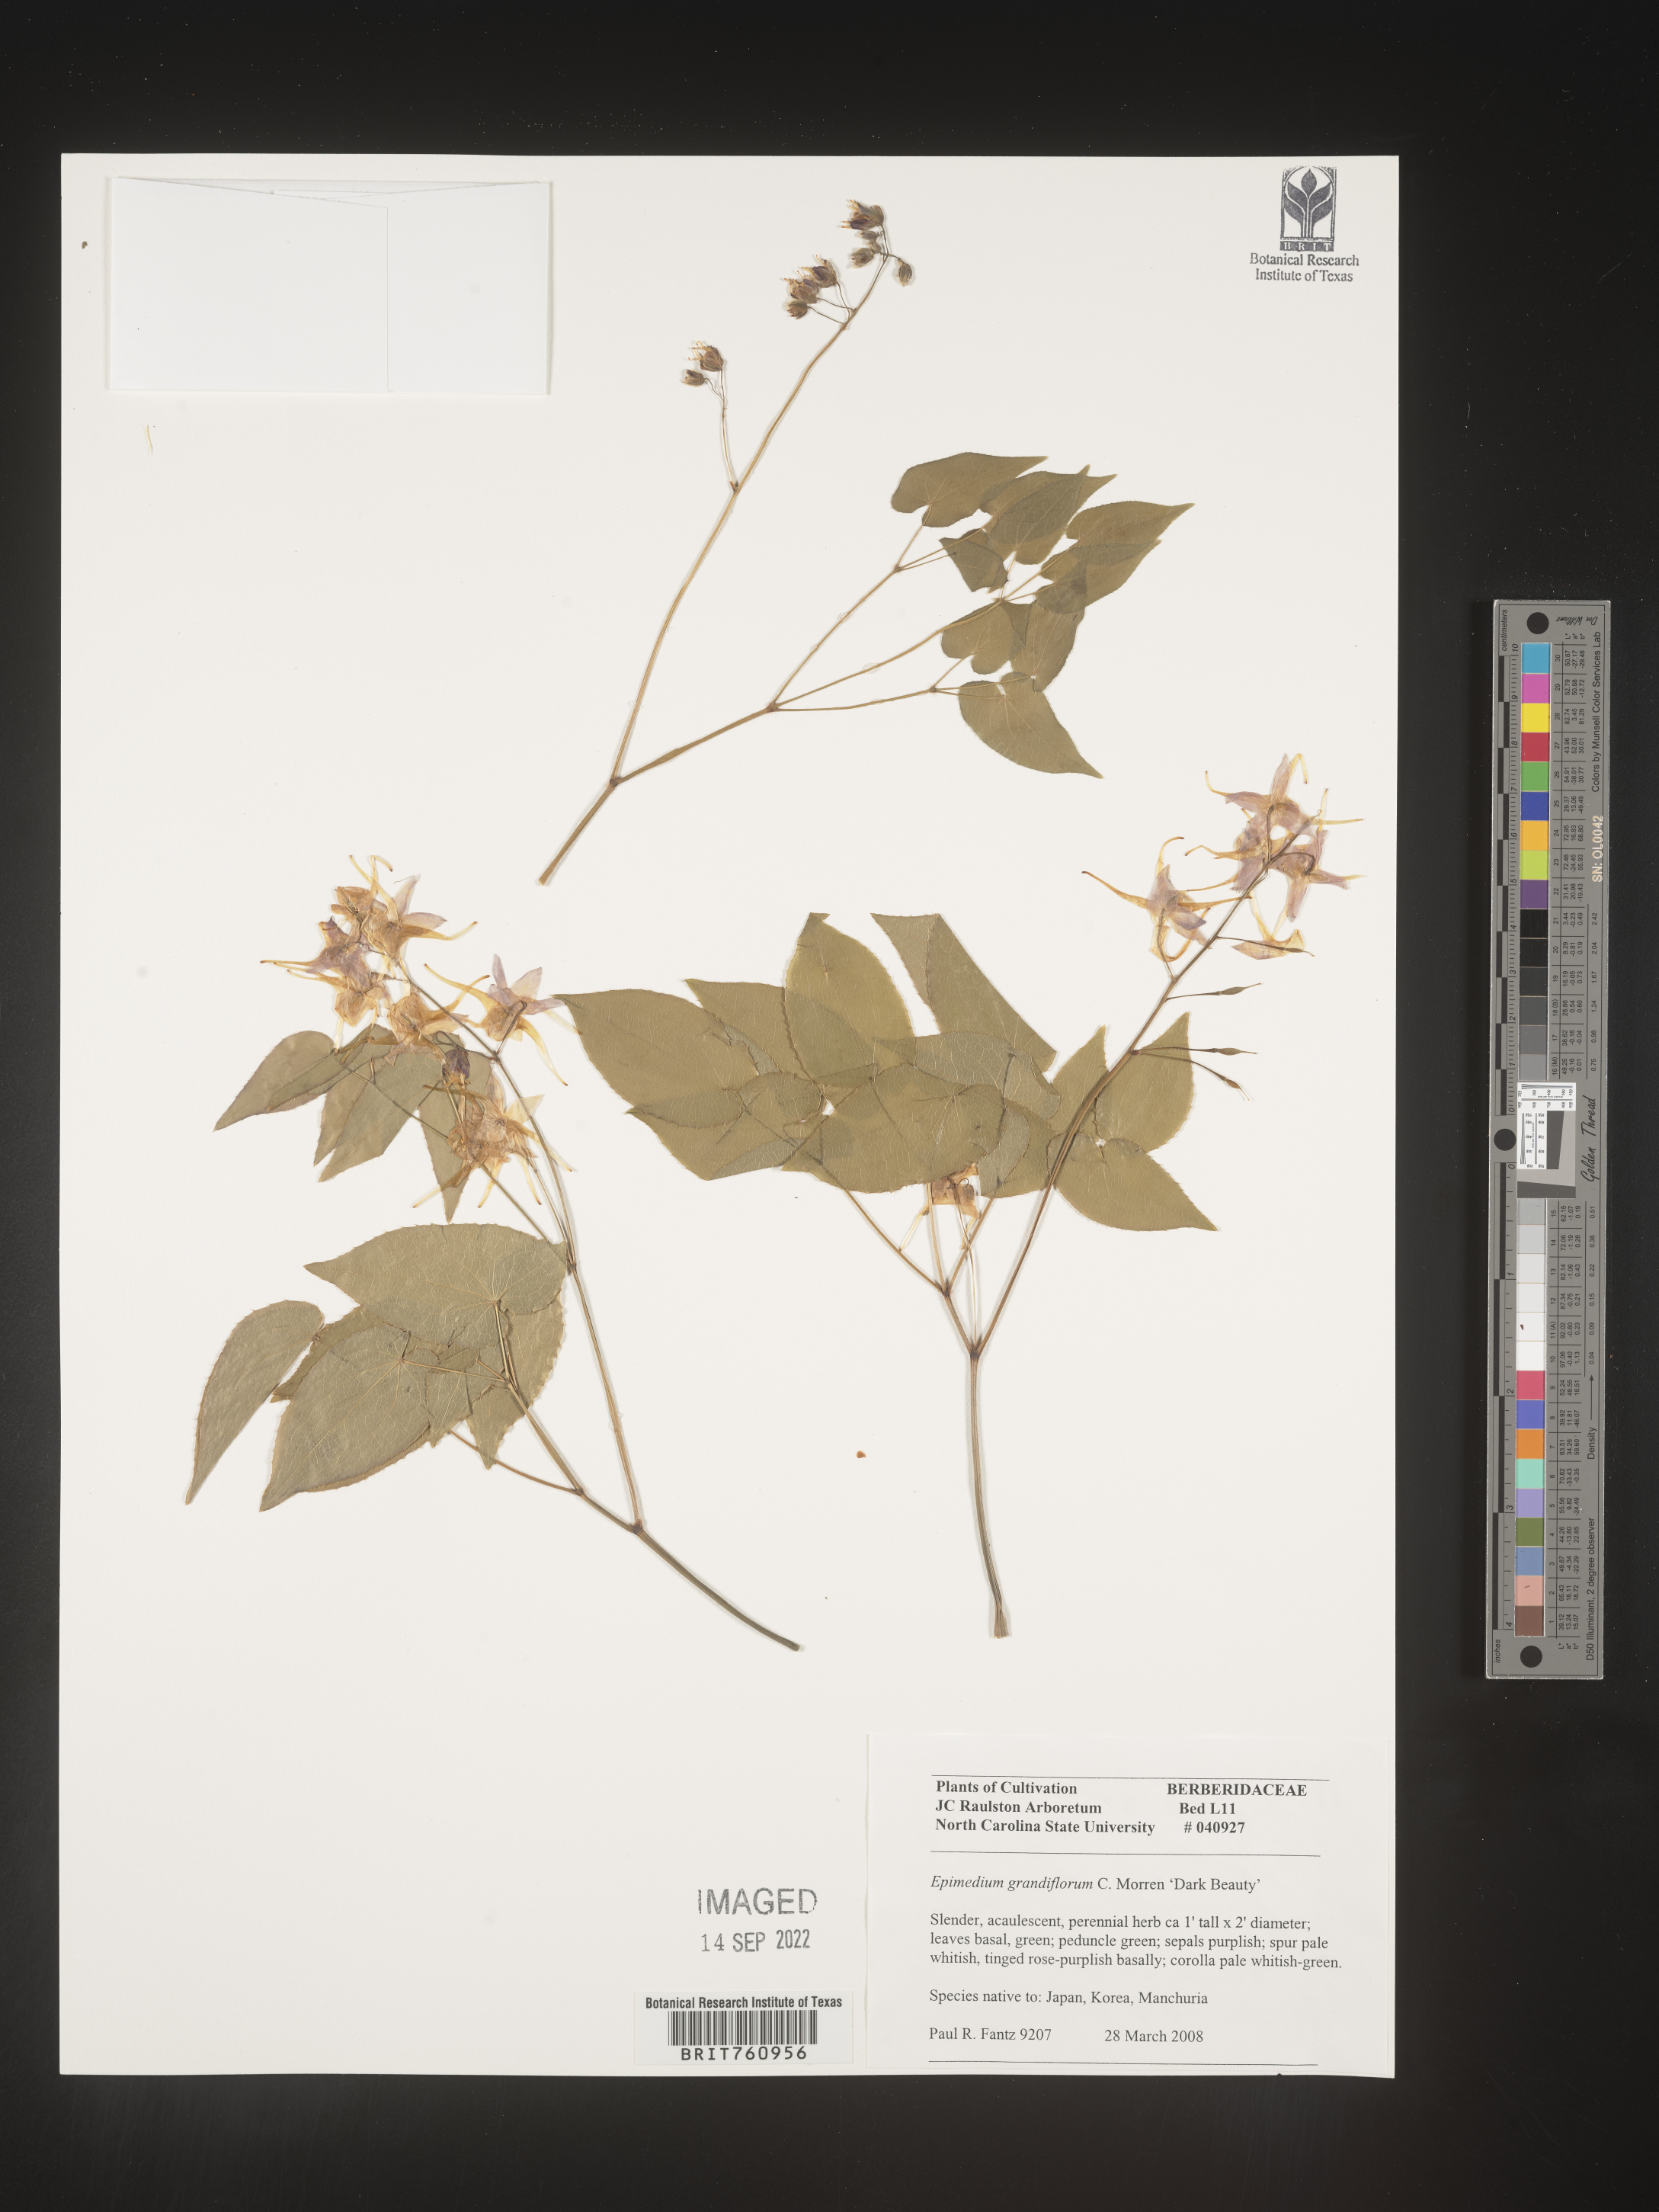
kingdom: Plantae
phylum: Tracheophyta
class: Magnoliopsida
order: Ranunculales
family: Berberidaceae
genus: Epimedium
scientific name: Epimedium
